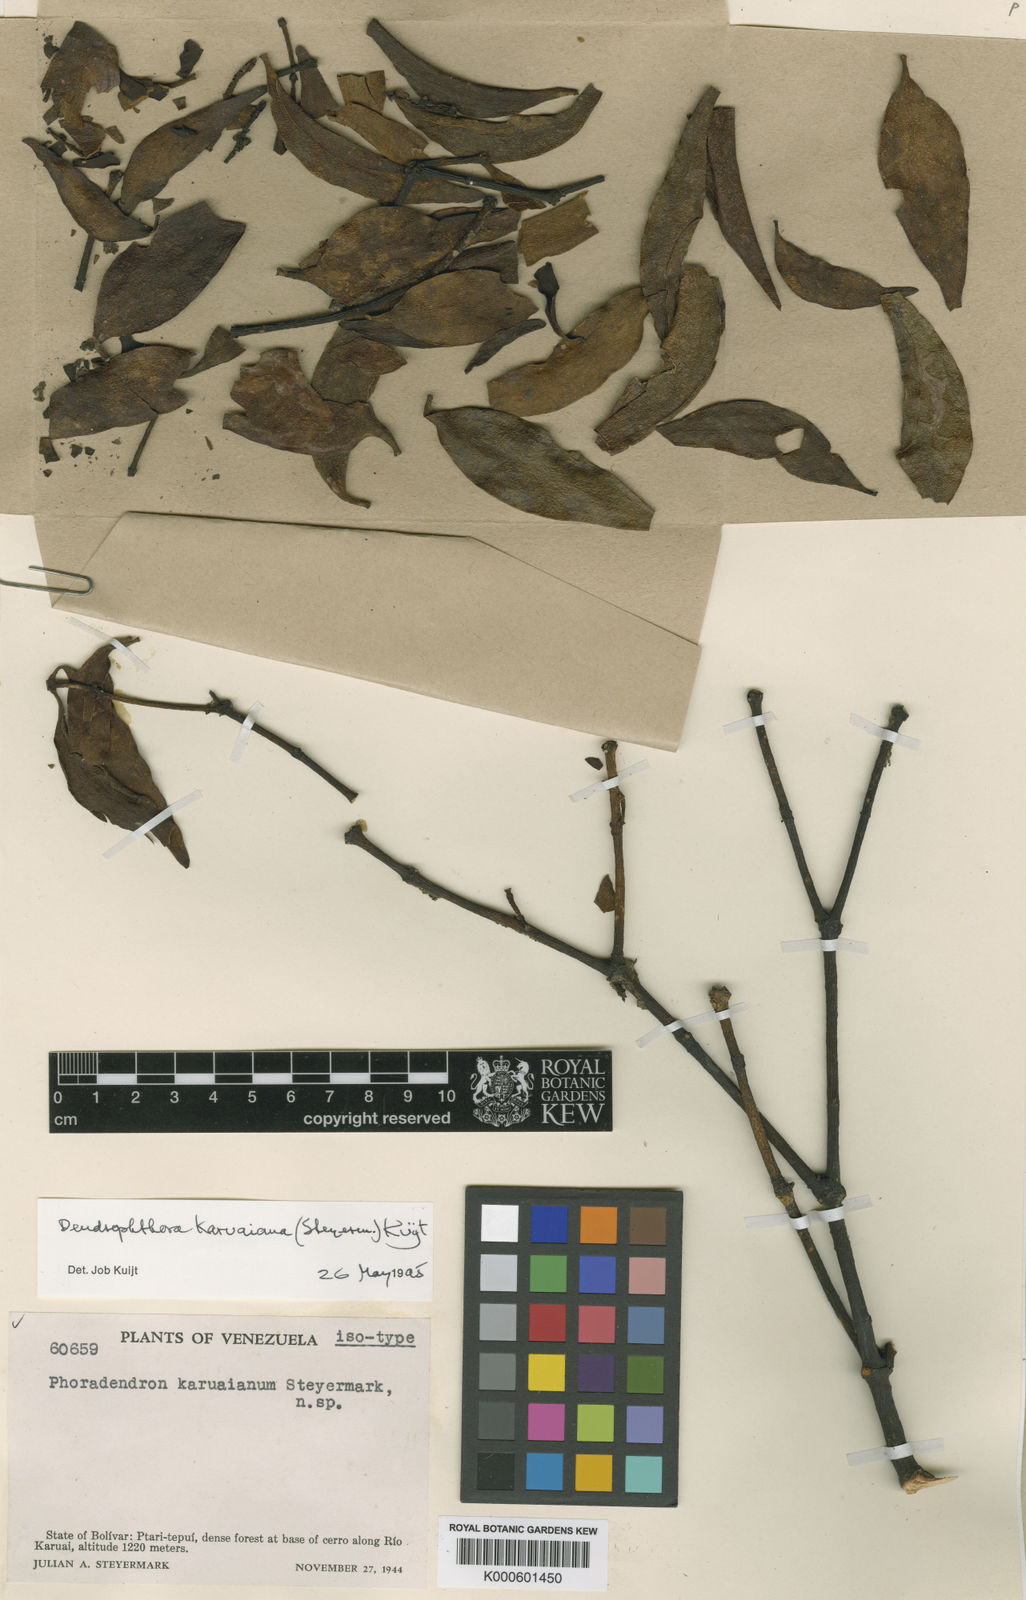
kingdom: Plantae
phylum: Tracheophyta
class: Magnoliopsida
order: Santalales
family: Viscaceae
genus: Dendrophthora
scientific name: Dendrophthora karuaiana
